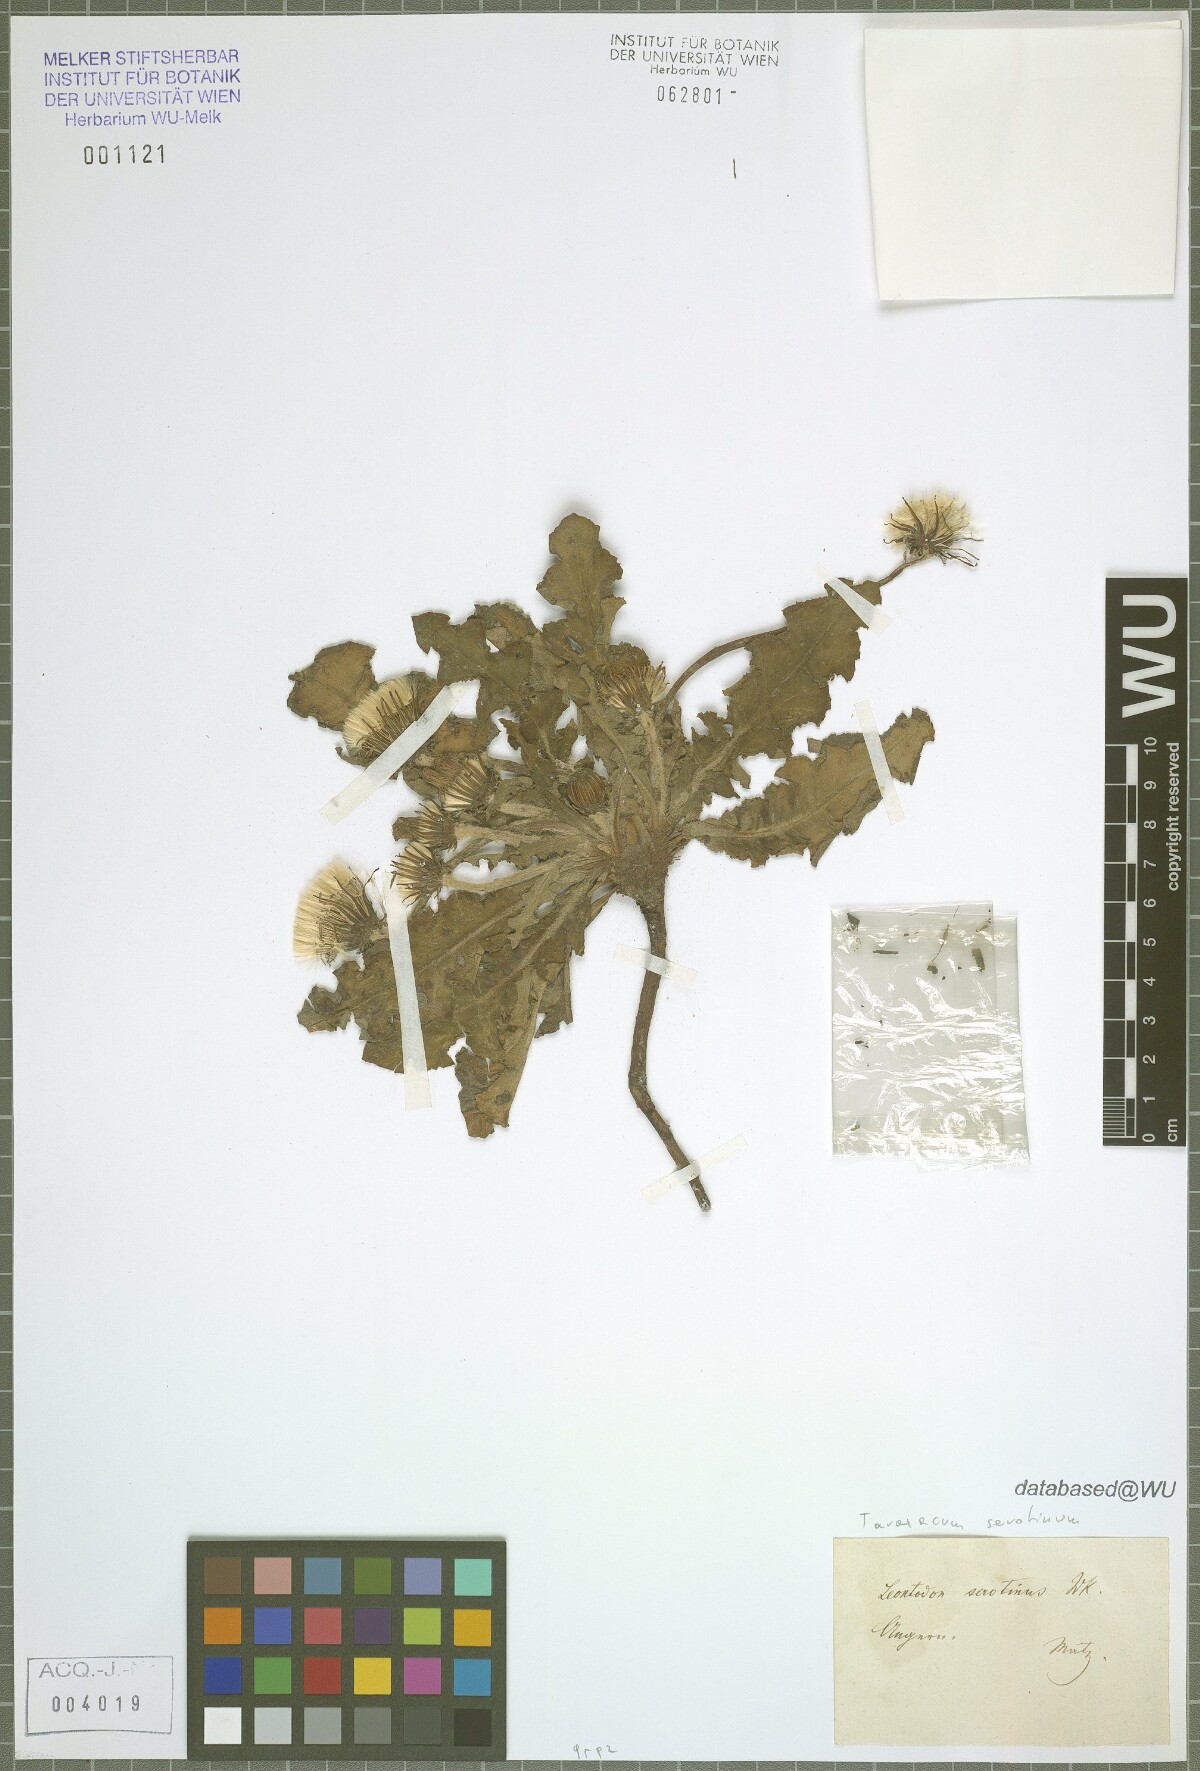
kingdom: Plantae
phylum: Tracheophyta
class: Magnoliopsida
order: Asterales
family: Asteraceae
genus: Taraxacum
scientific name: Taraxacum serotinum
